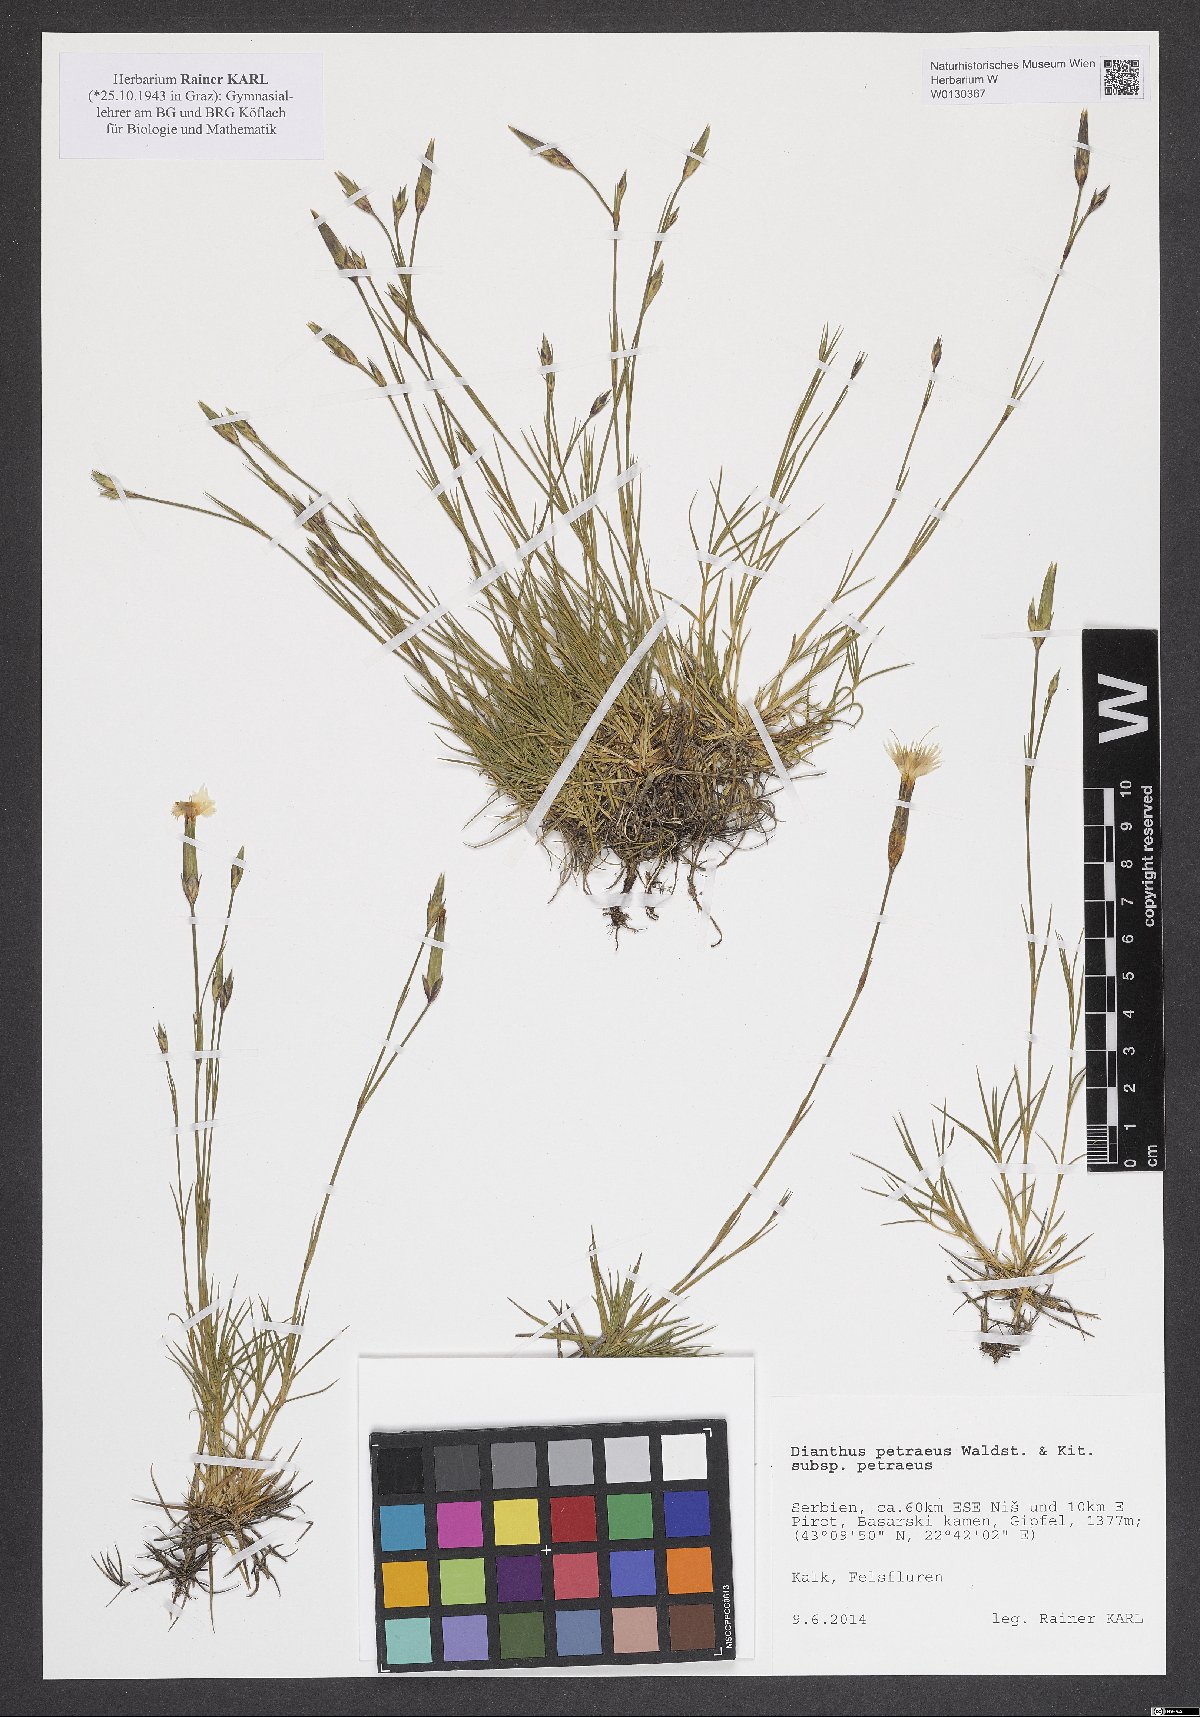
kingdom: Plantae
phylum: Tracheophyta
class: Magnoliopsida
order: Caryophyllales
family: Caryophyllaceae
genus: Dianthus
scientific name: Dianthus petraeus
